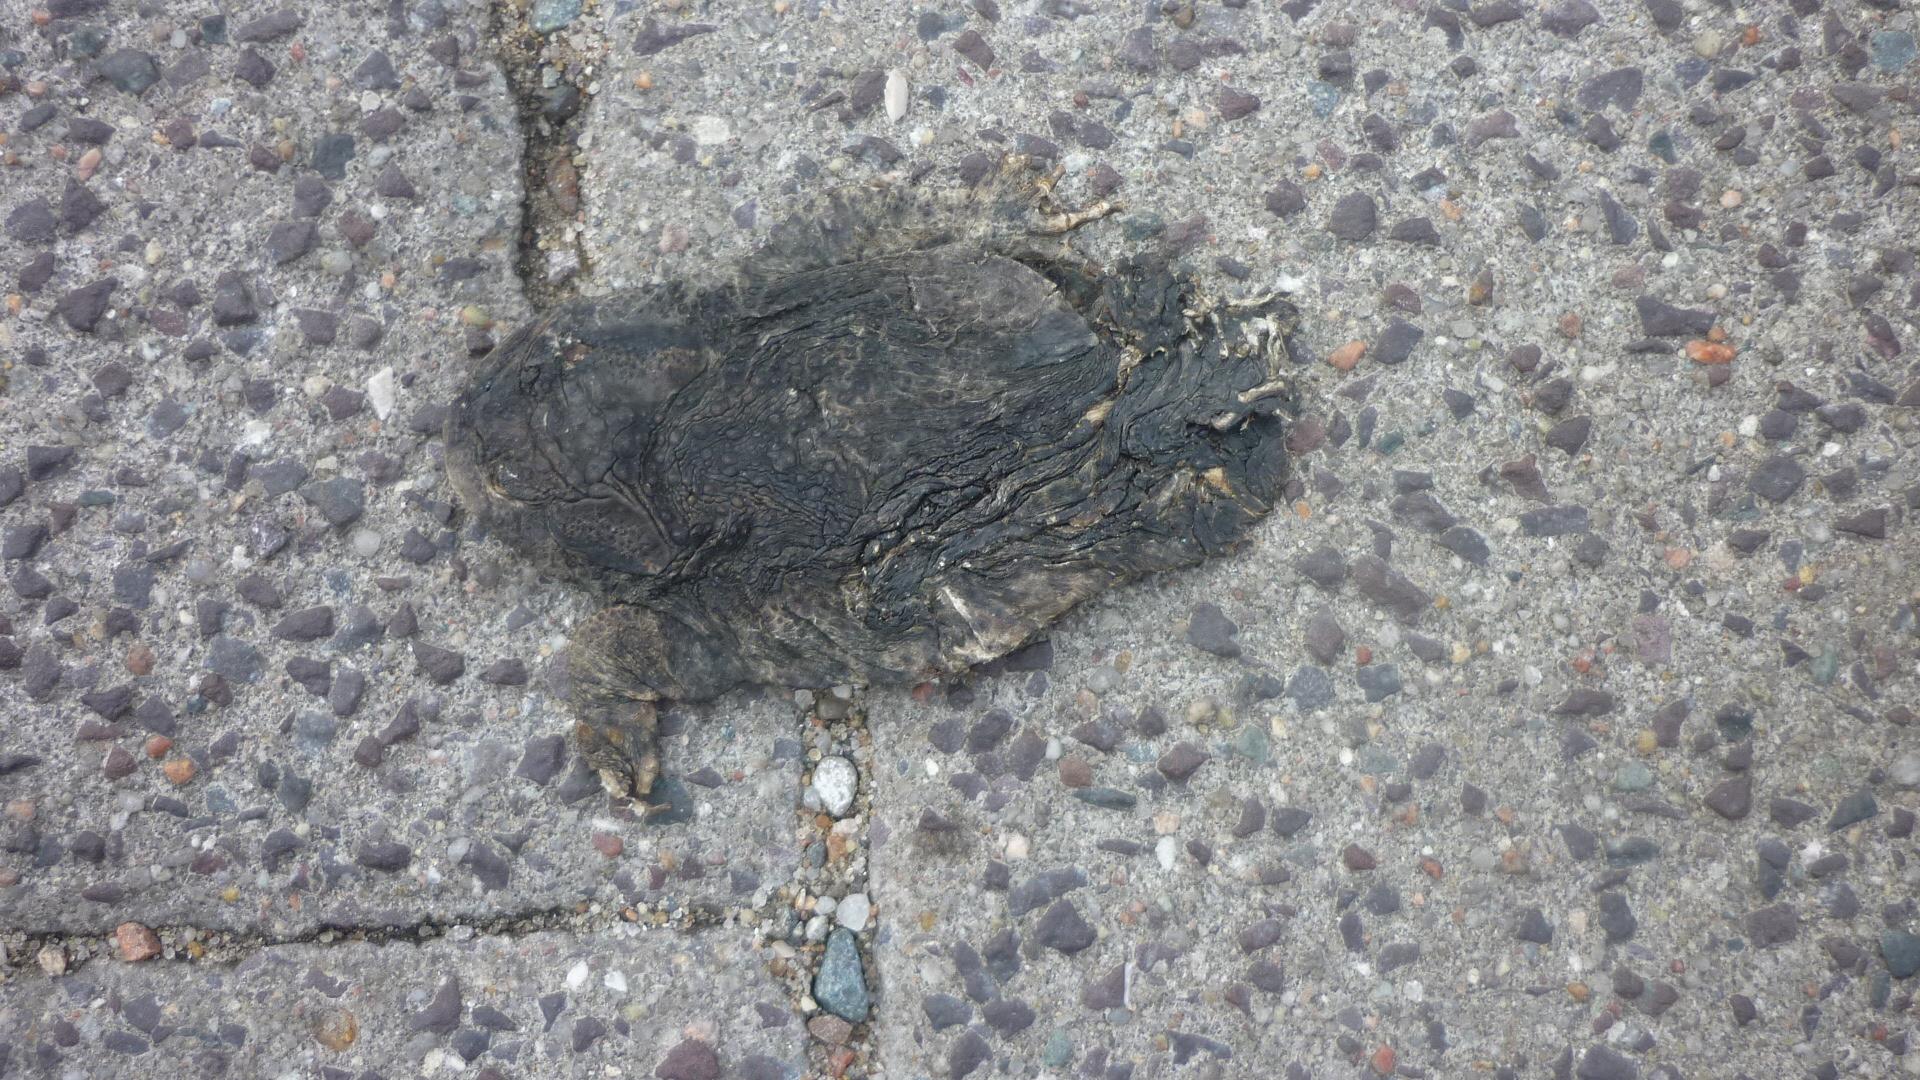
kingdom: Animalia
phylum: Chordata
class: Amphibia
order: Anura
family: Bufonidae
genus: Bufo
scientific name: Bufo bufo
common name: Common toad
